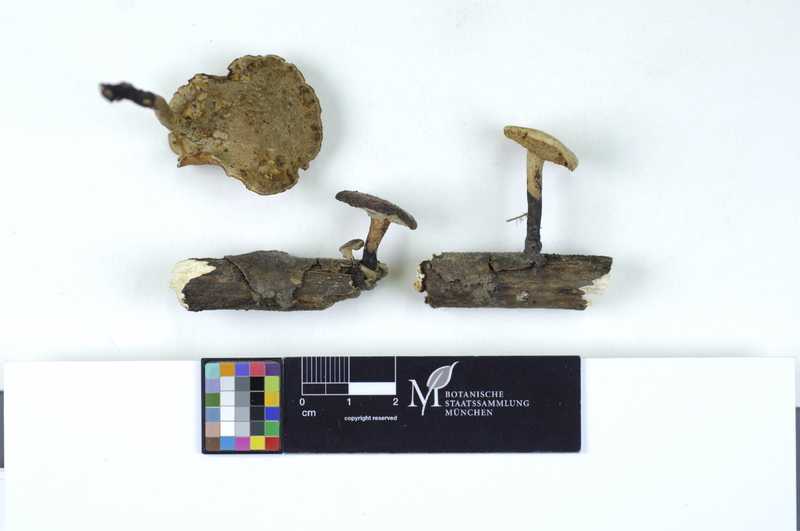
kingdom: Fungi
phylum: Basidiomycota
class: Agaricomycetes
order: Polyporales
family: Polyporaceae
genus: Cerioporus
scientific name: Cerioporus varius
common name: Elegant polypore
